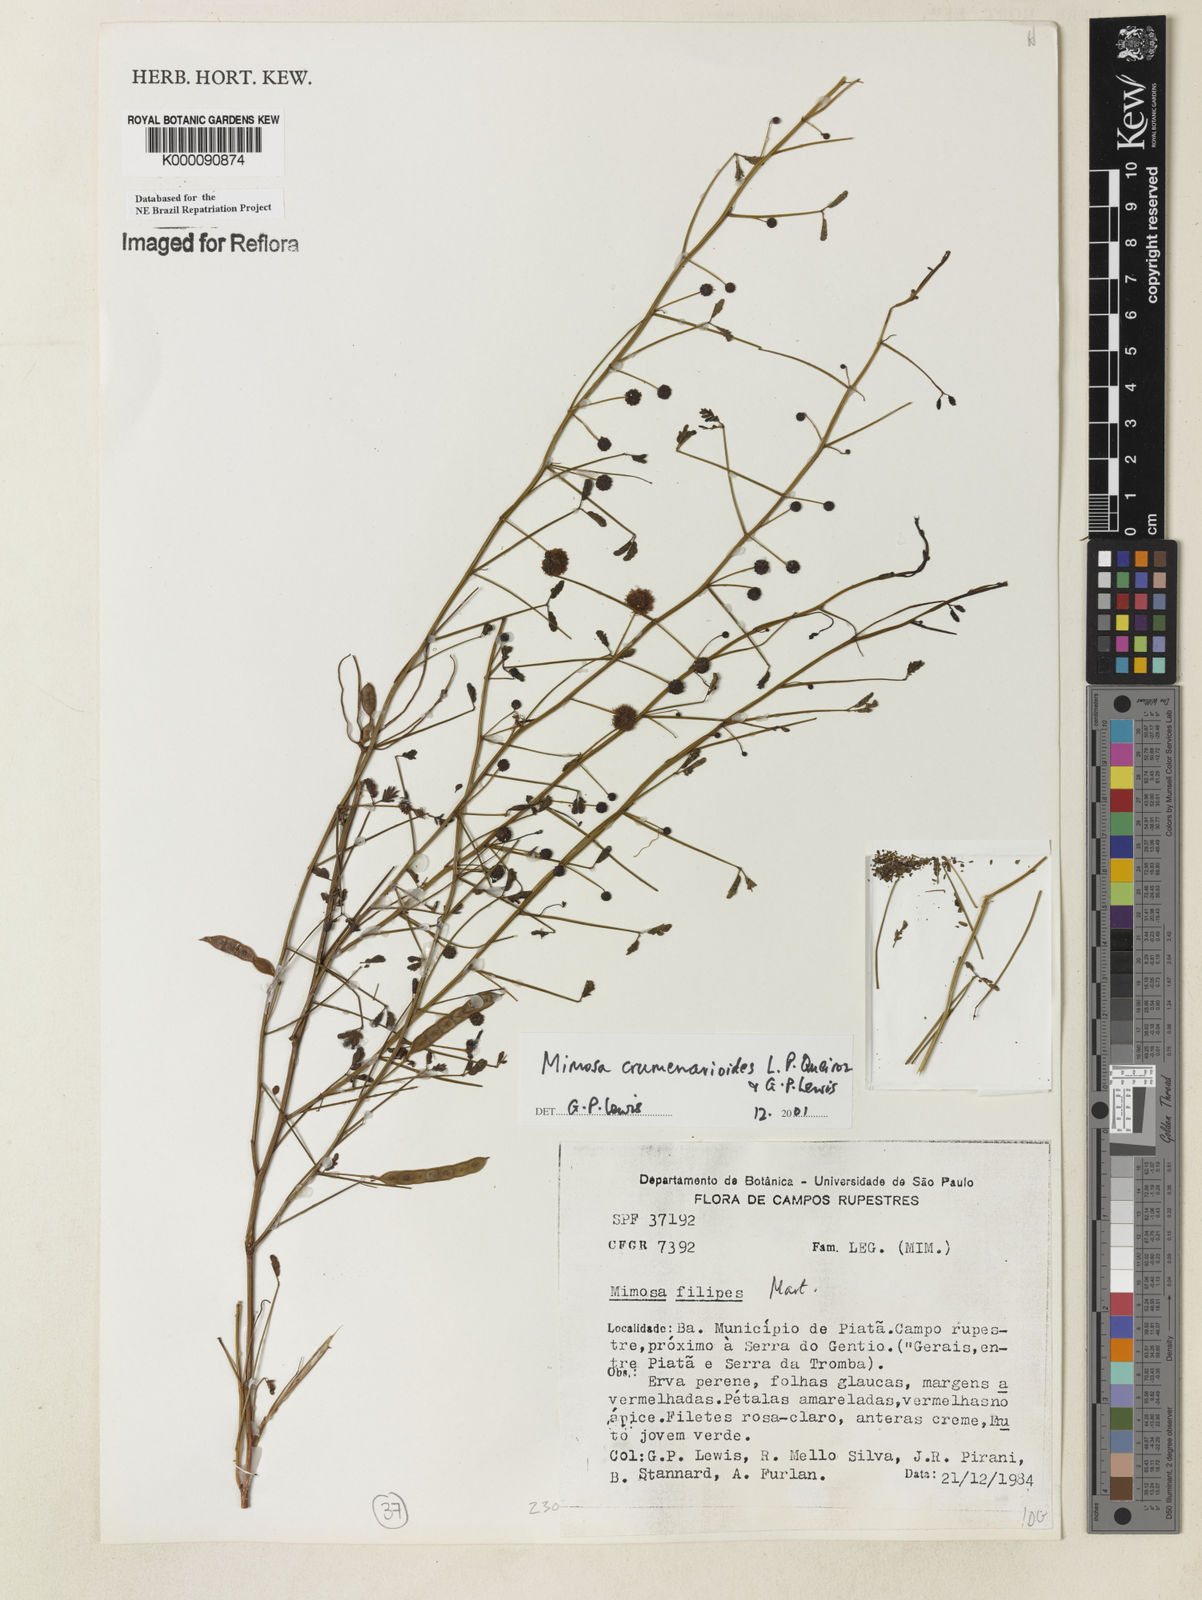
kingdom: Plantae
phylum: Tracheophyta
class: Magnoliopsida
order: Fabales
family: Fabaceae
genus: Mimosa
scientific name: Mimosa crumenarioides
